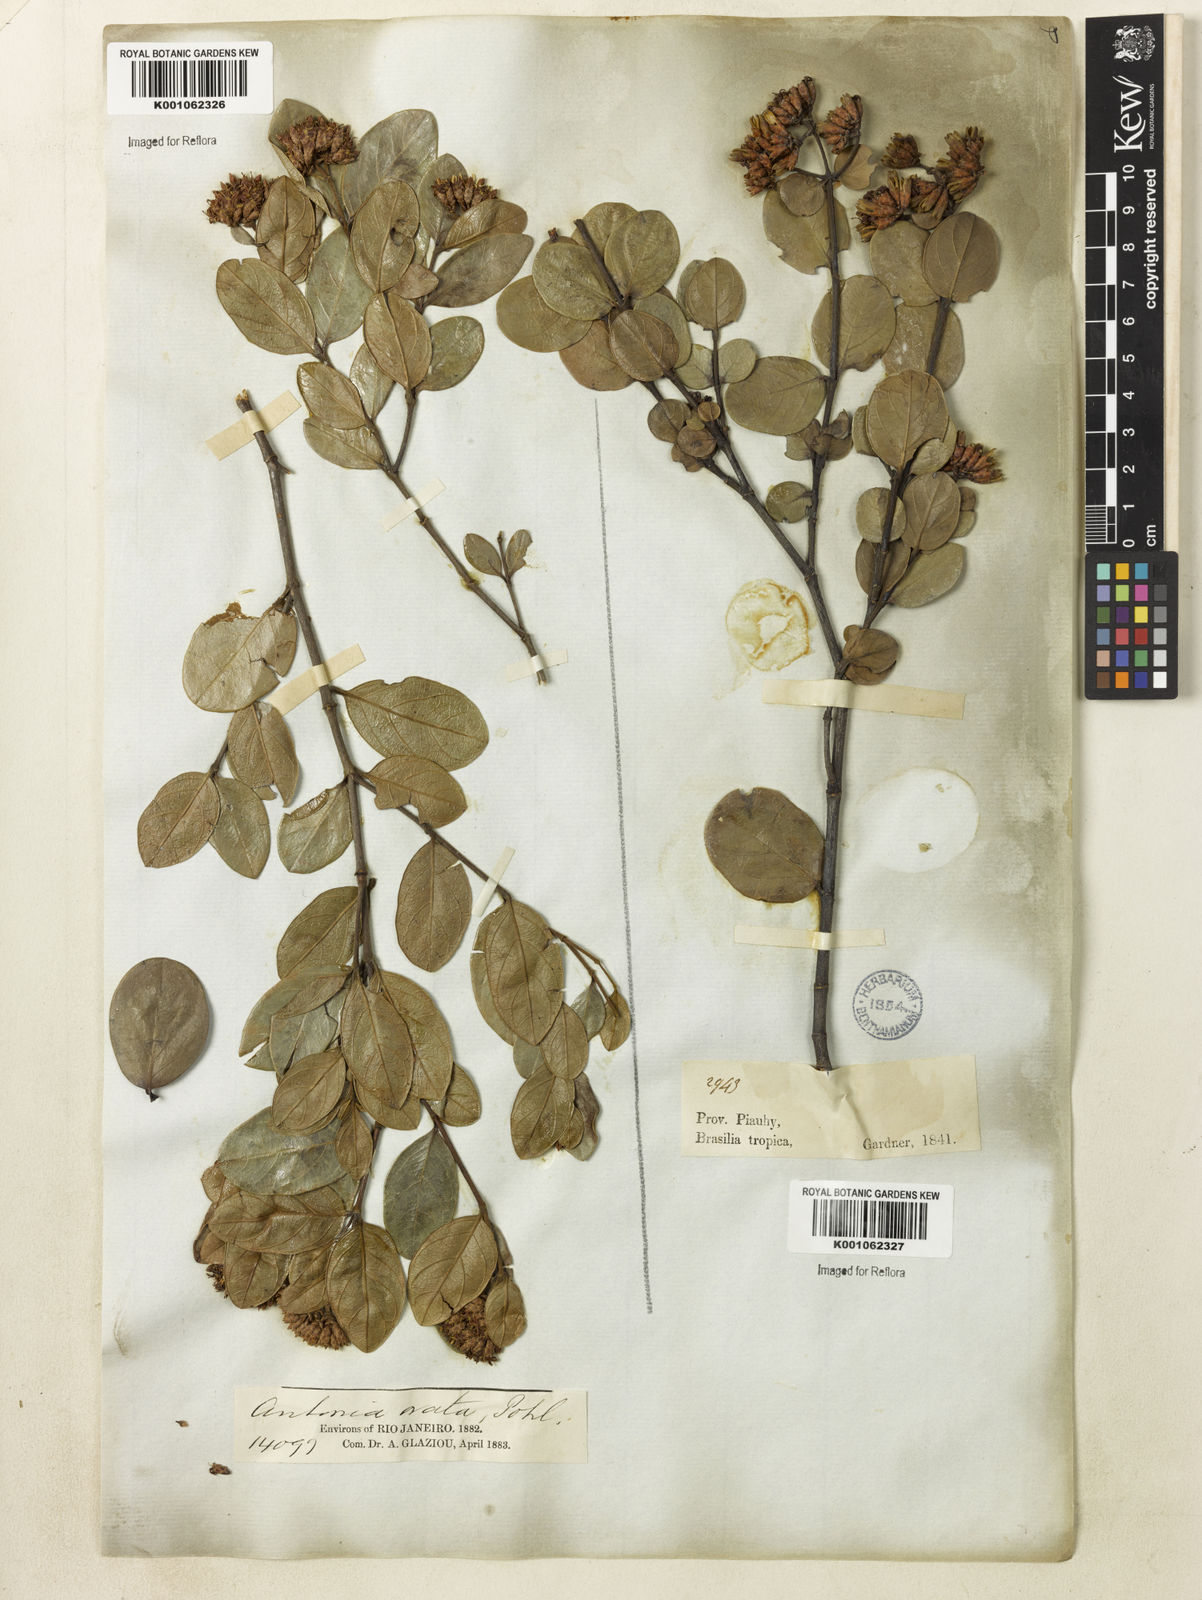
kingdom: Plantae
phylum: Tracheophyta
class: Magnoliopsida
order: Gentianales
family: Loganiaceae
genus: Antonia
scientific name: Antonia ovata
